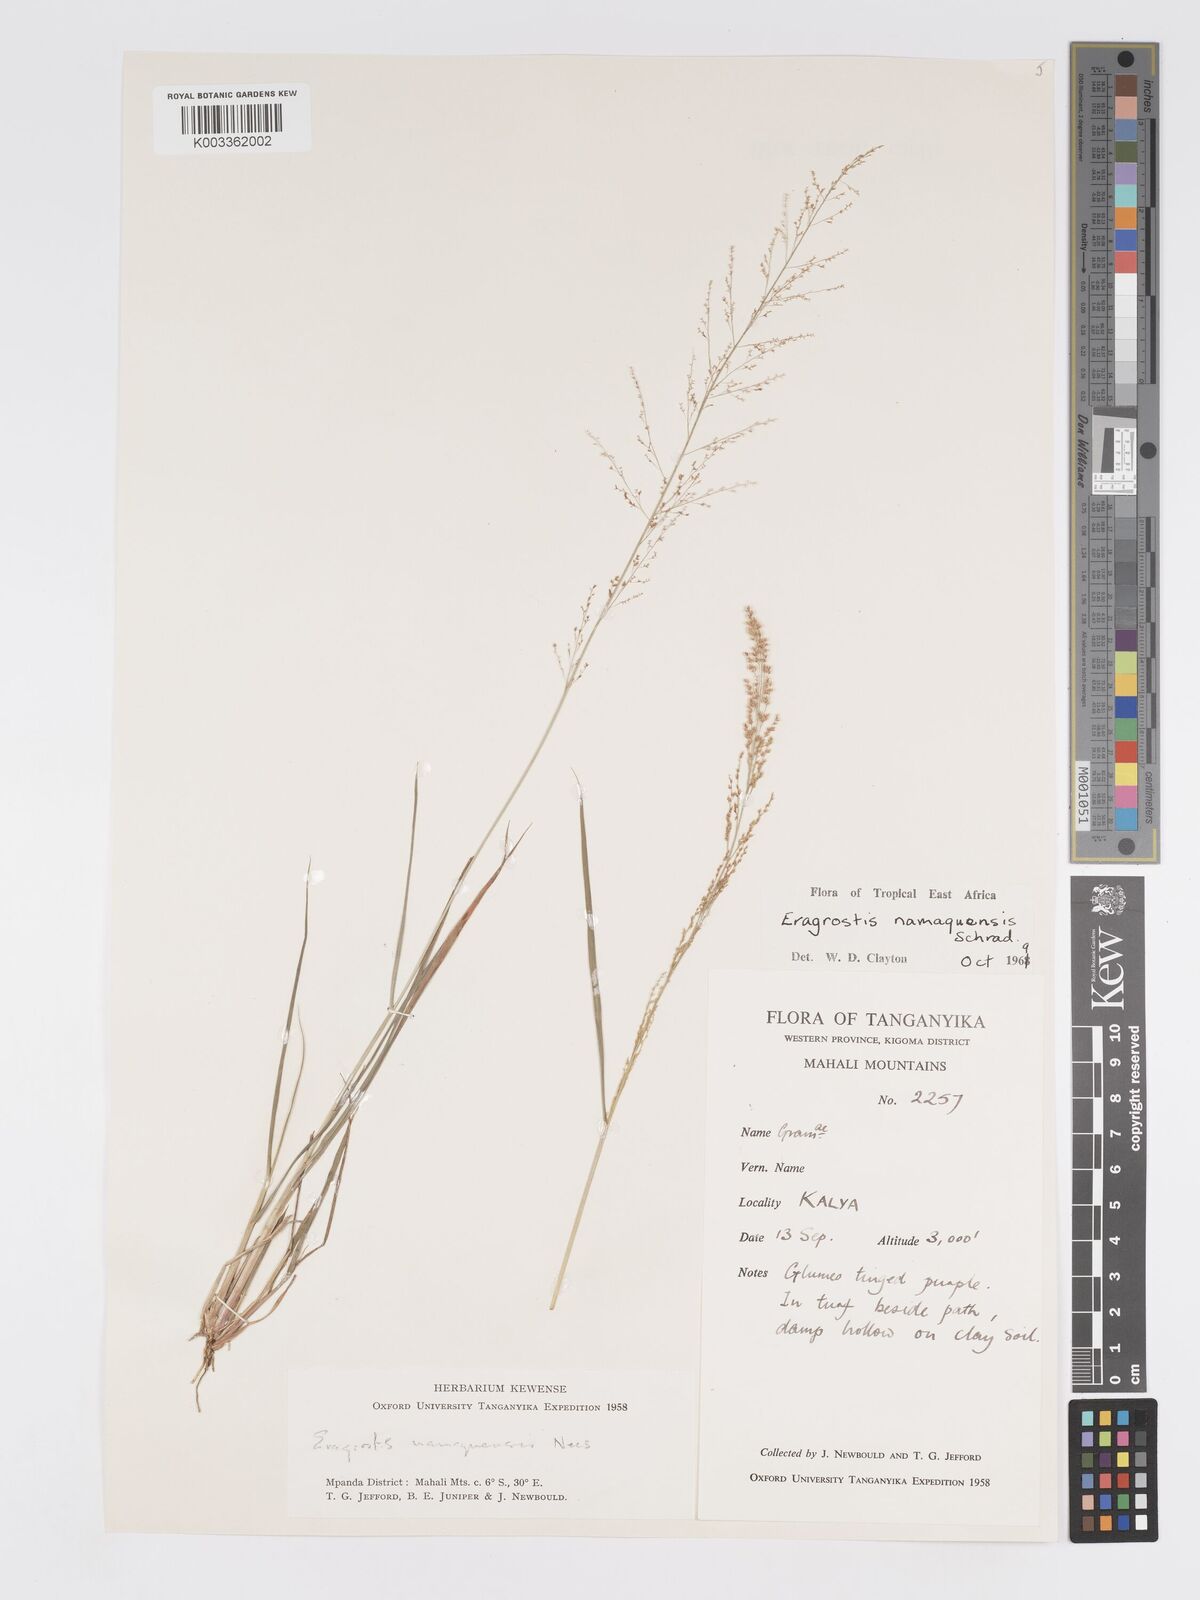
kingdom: Plantae
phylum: Tracheophyta
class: Liliopsida
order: Poales
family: Poaceae
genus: Eragrostis
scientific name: Eragrostis japonica
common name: Pond lovegrass
